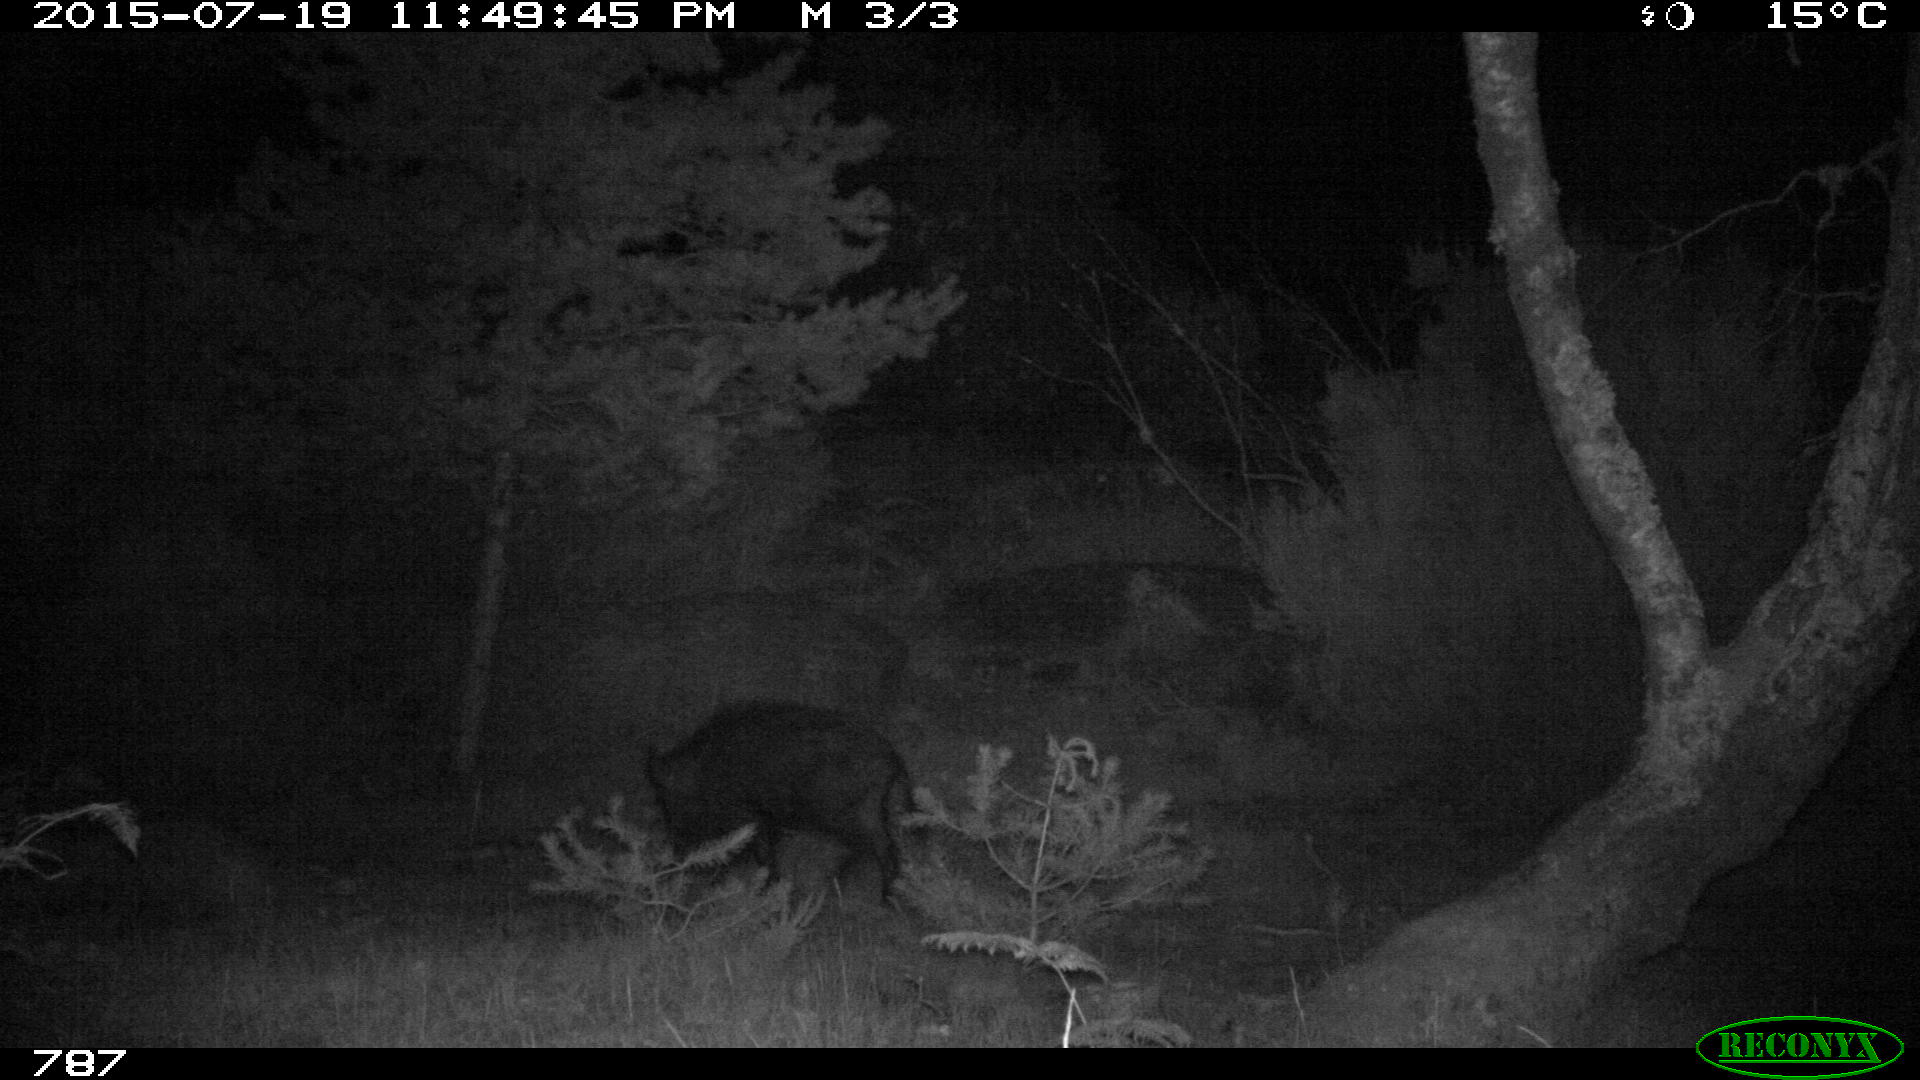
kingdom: Animalia
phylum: Chordata
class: Mammalia
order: Artiodactyla
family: Suidae
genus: Sus
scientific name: Sus scrofa
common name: Wild boar
